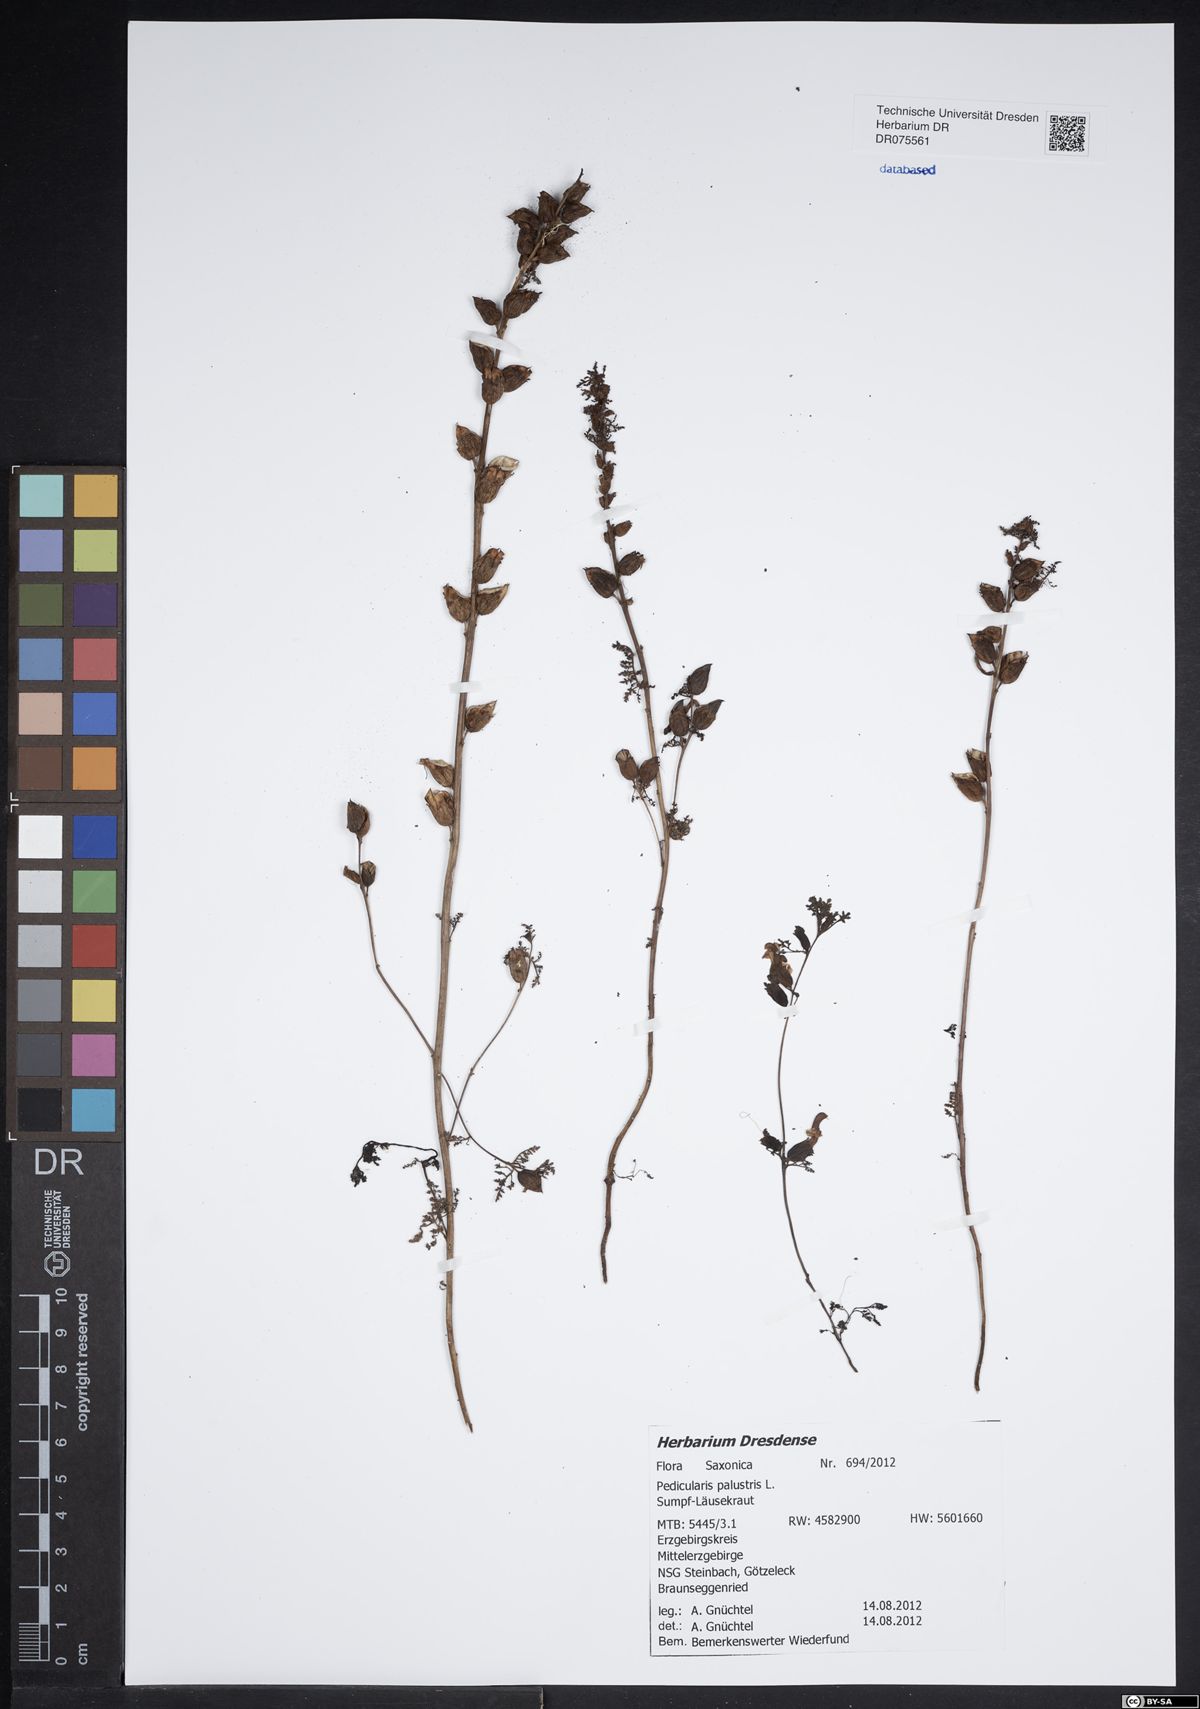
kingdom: Plantae
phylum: Tracheophyta
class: Magnoliopsida
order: Lamiales
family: Orobanchaceae
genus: Pedicularis
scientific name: Pedicularis palustris
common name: Marsh lousewort
